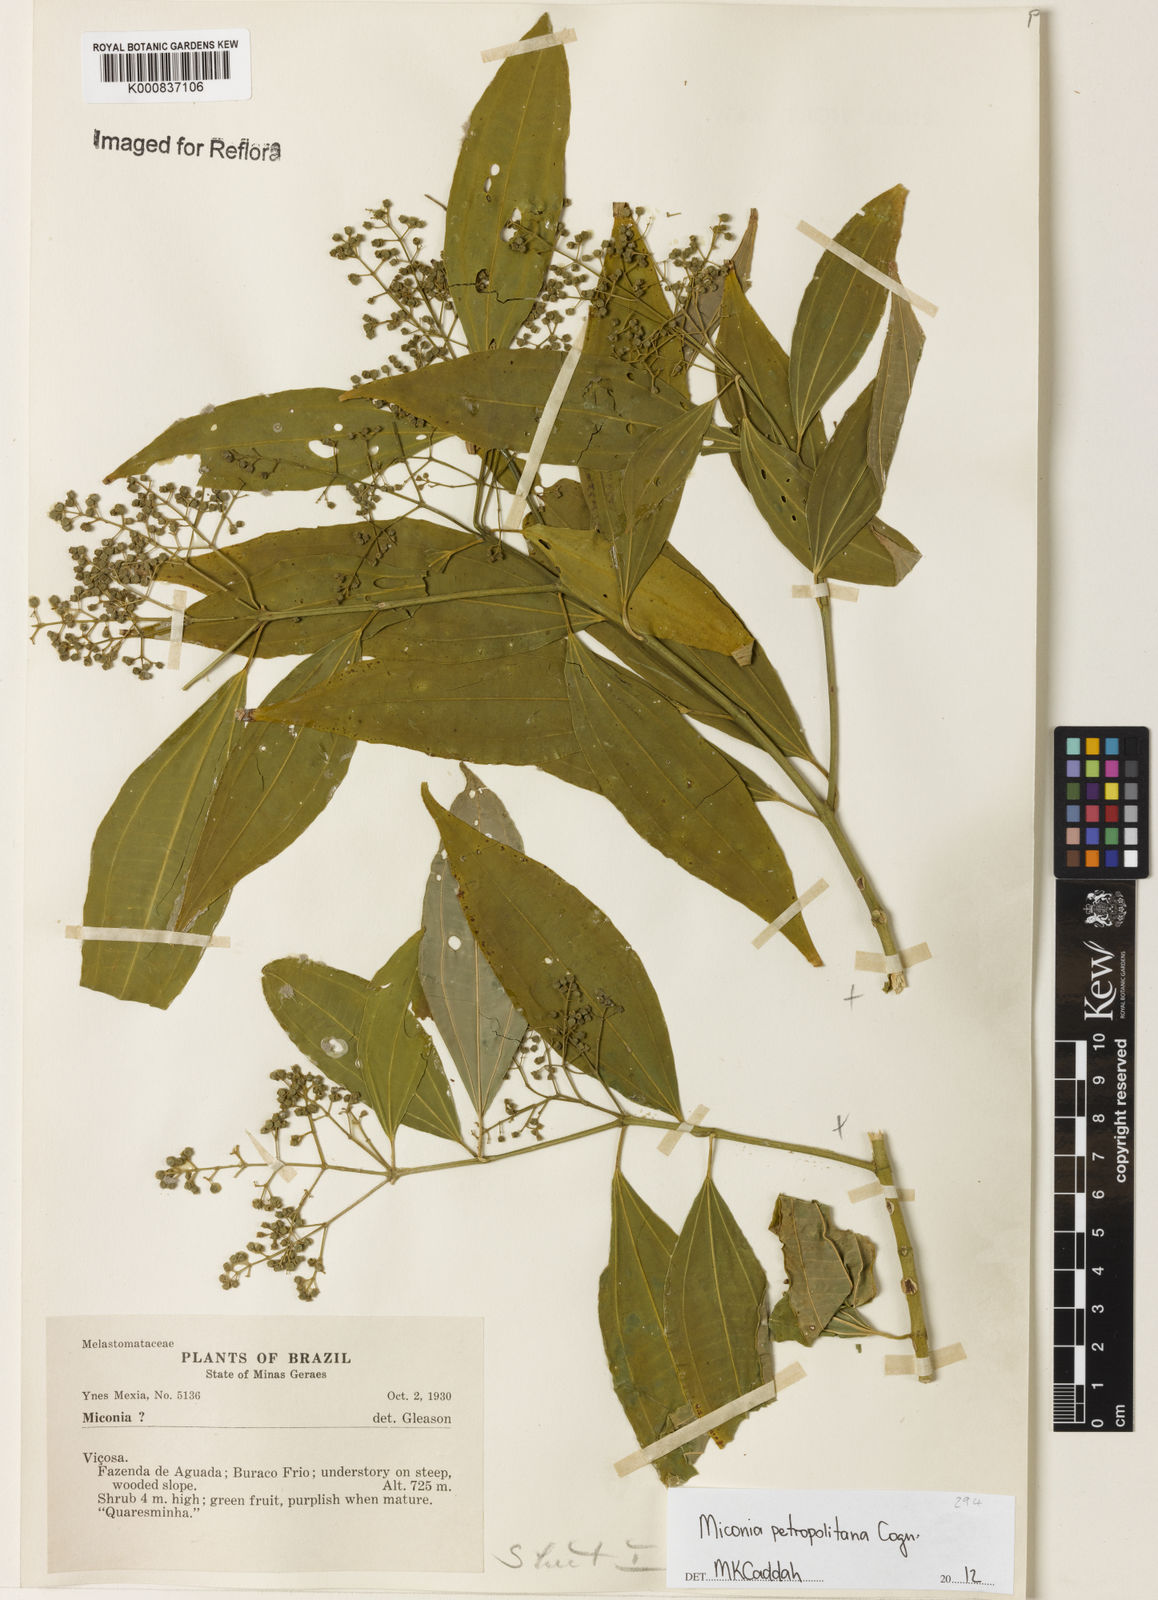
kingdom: Plantae
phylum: Tracheophyta
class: Magnoliopsida
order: Myrtales
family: Melastomataceae
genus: Miconia
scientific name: Miconia petropolitana
